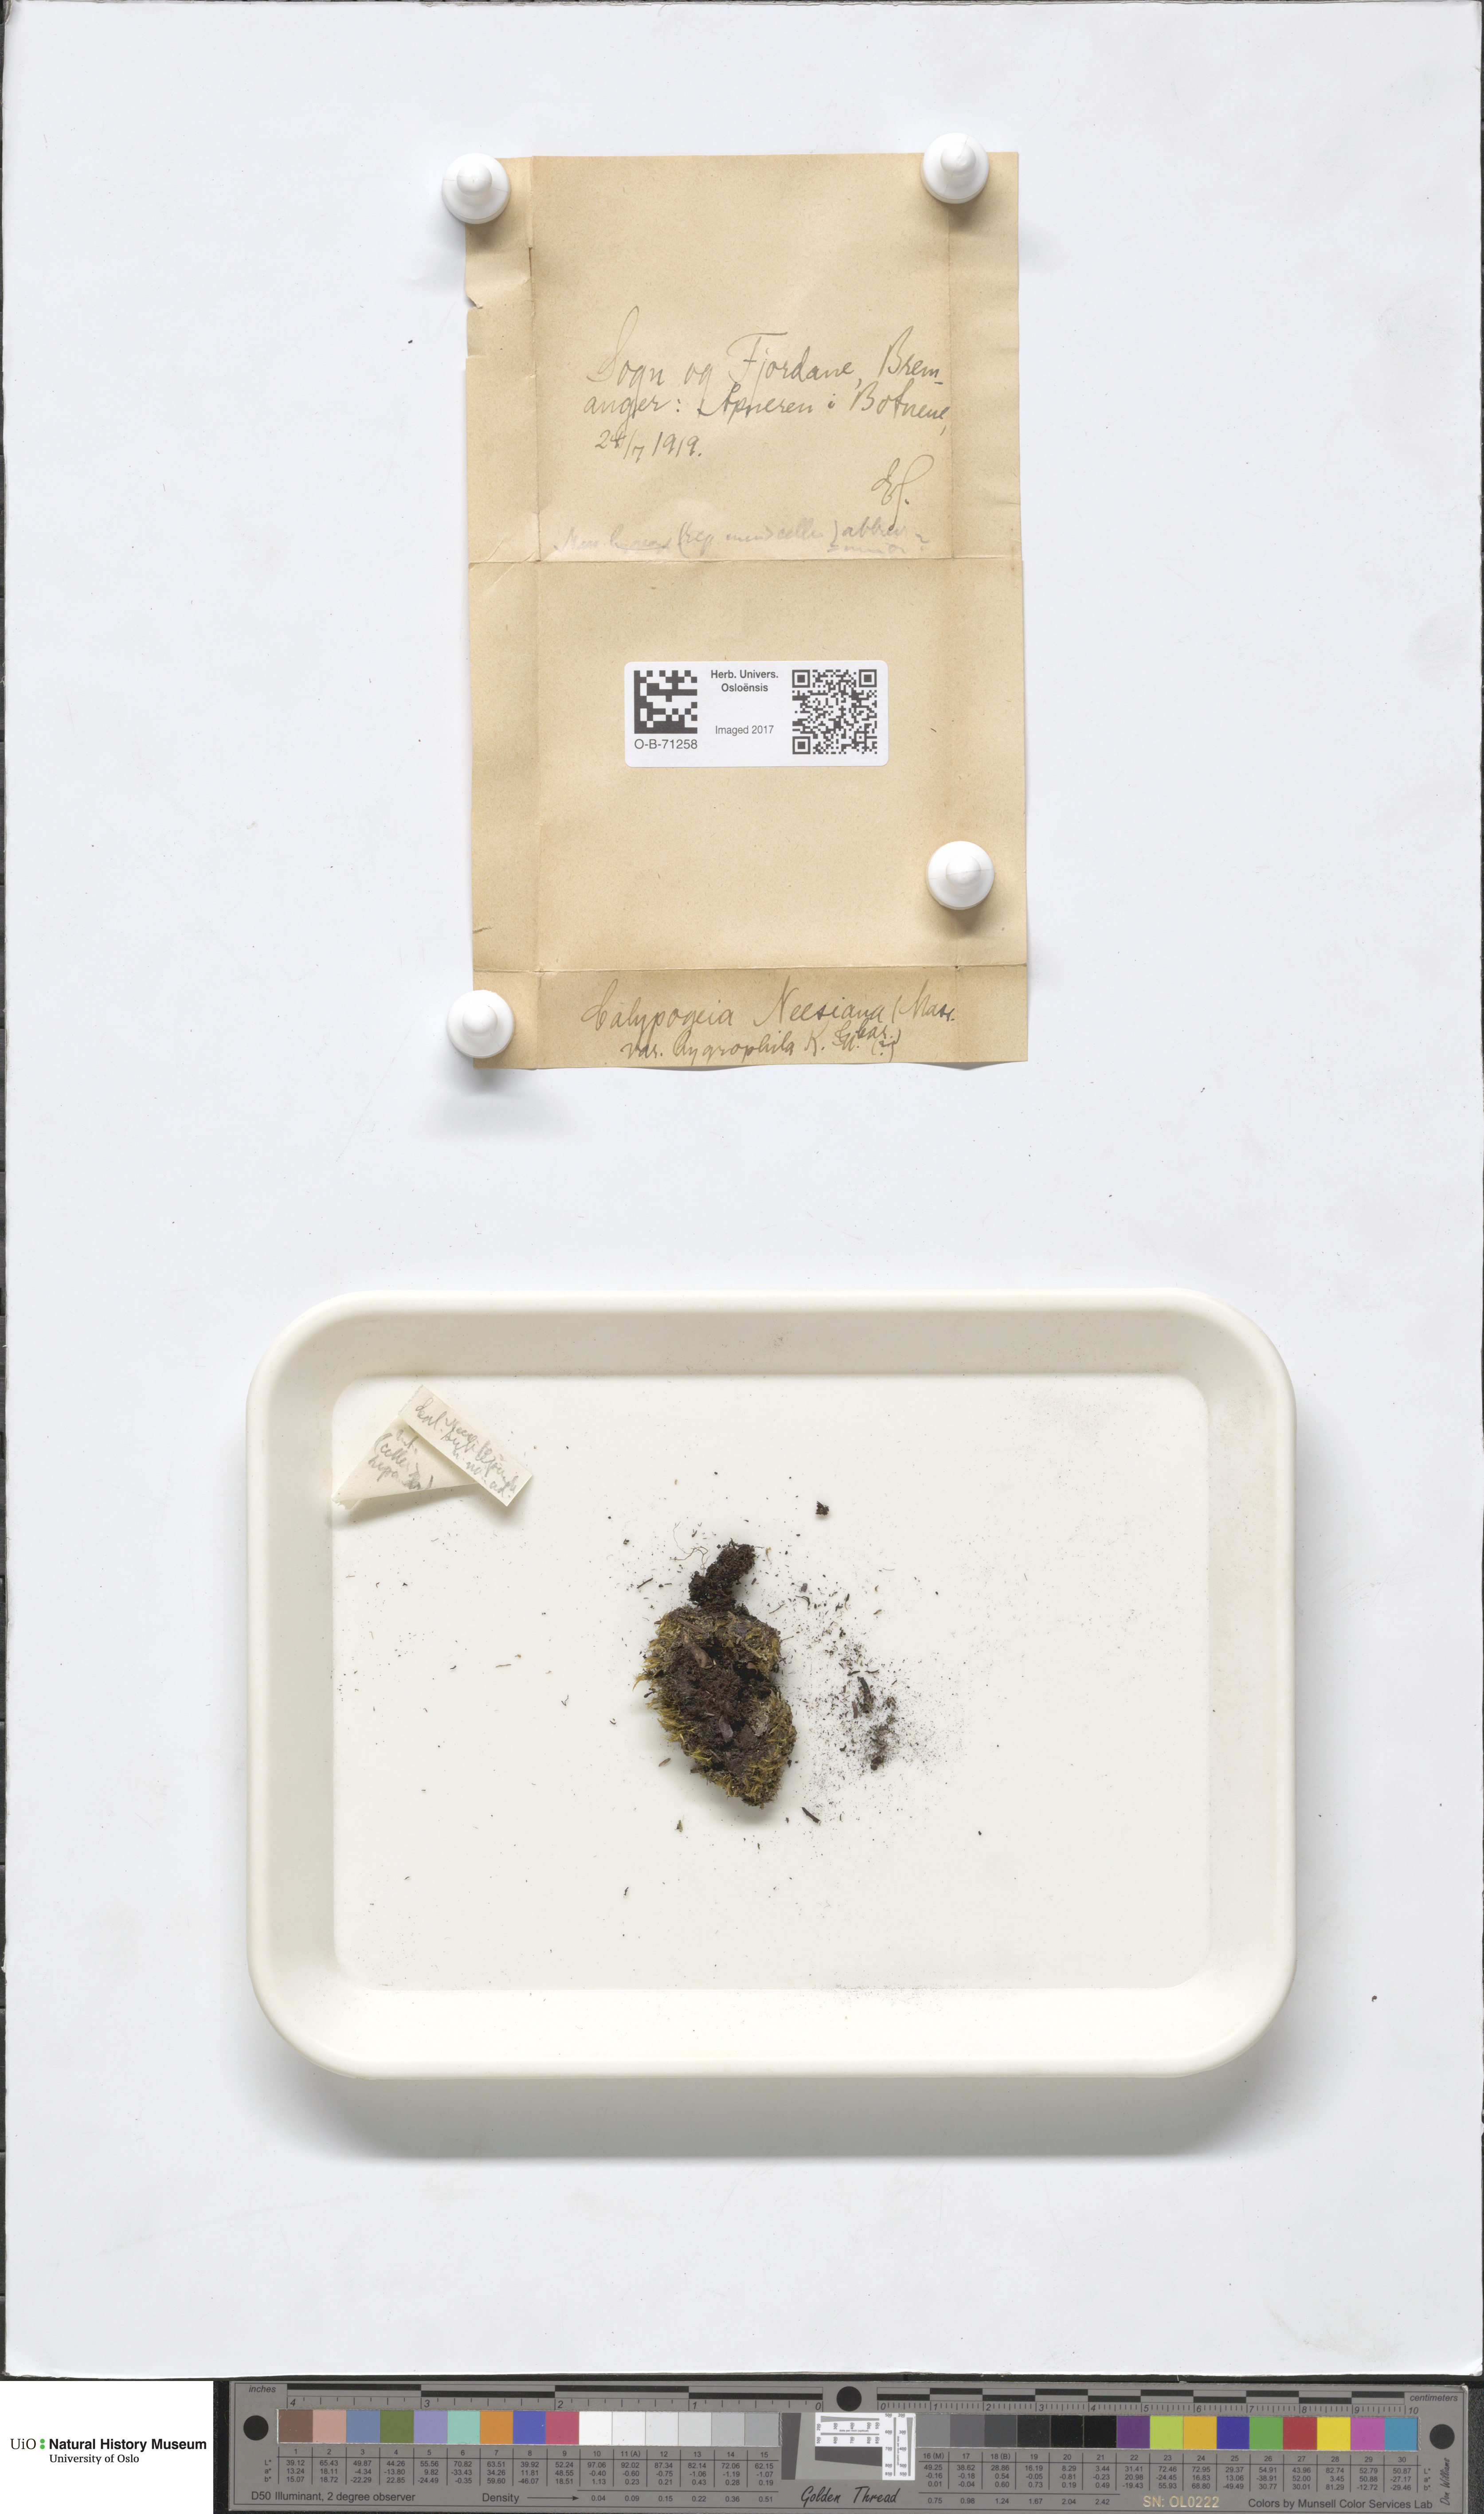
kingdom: Plantae
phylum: Marchantiophyta
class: Jungermanniopsida
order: Jungermanniales
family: Calypogeiaceae
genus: Calypogeia
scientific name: Calypogeia neesiana
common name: Nees  pouchwort
